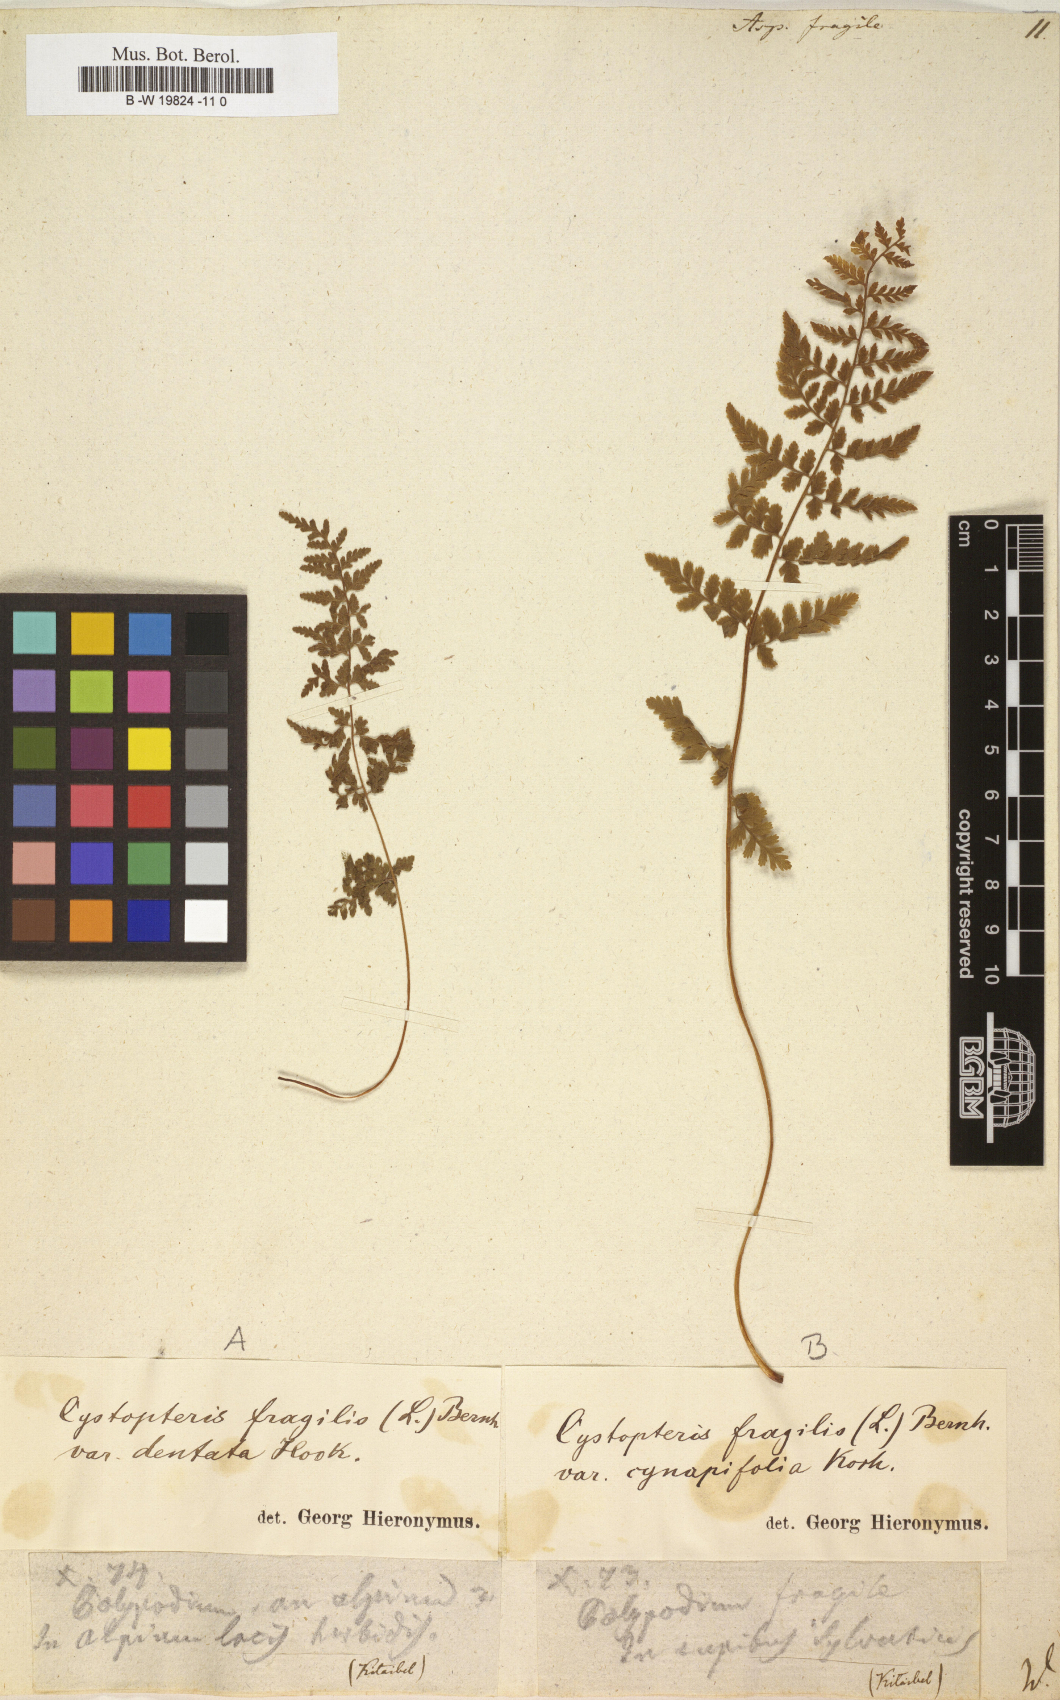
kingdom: Plantae
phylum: Tracheophyta
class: Polypodiopsida
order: Polypodiales
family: Cystopteridaceae
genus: Cystopteris
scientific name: Cystopteris fragilis
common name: Brittle bladder fern
